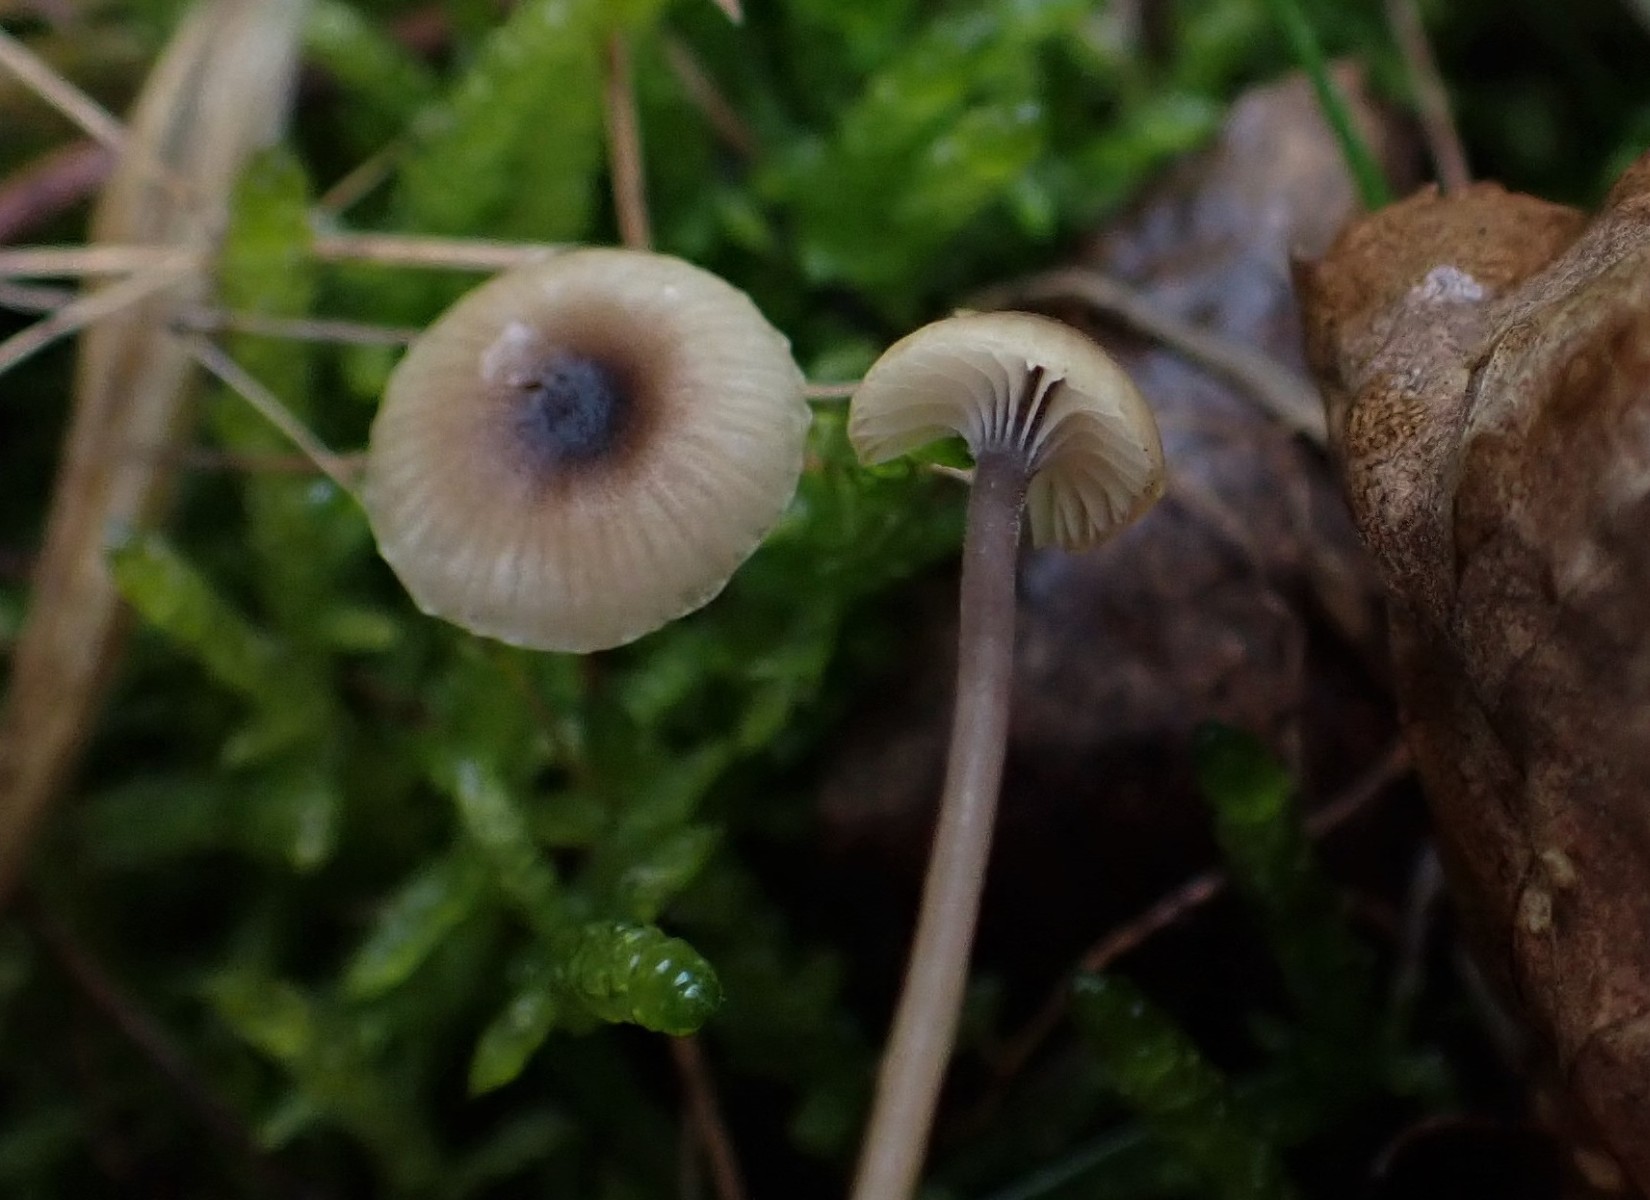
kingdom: Fungi
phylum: Basidiomycota
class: Agaricomycetes
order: Hymenochaetales
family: Rickenellaceae
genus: Rickenella
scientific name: Rickenella swartzii
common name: finstokket mosnavlehat
